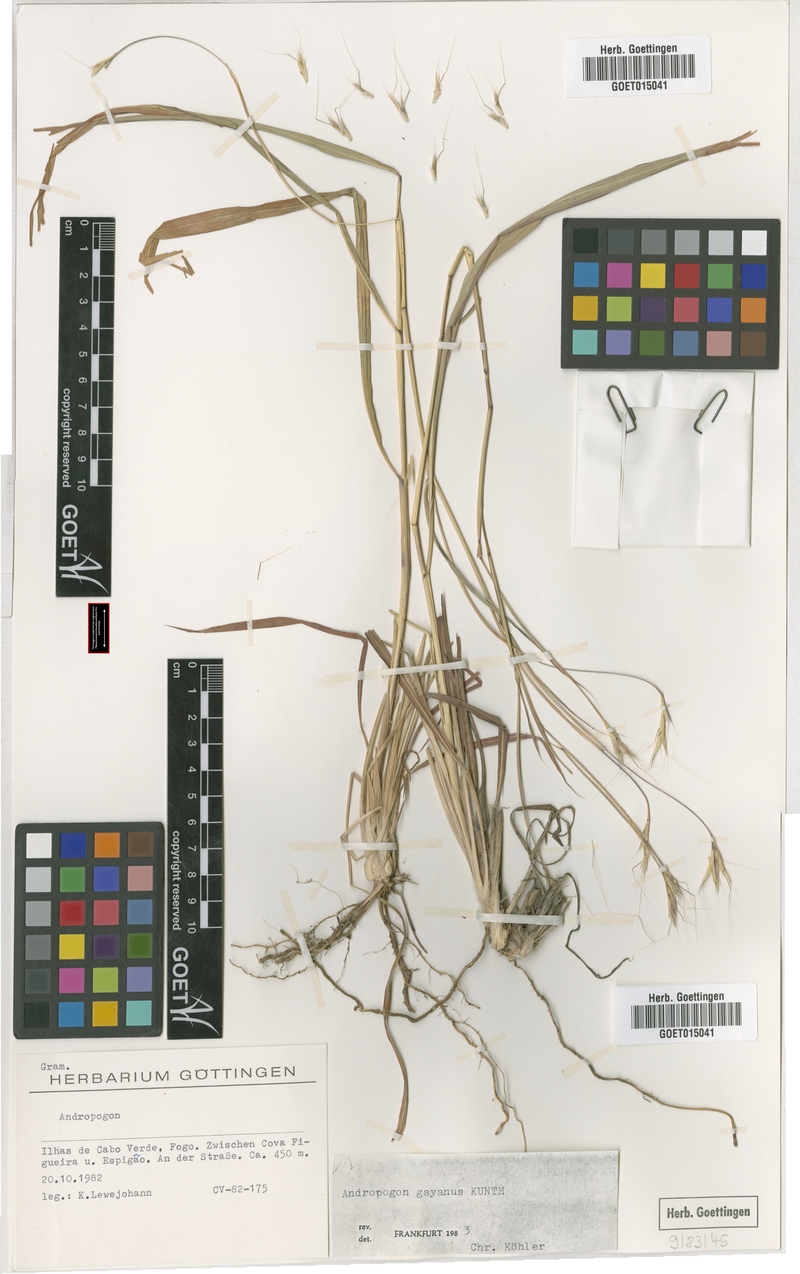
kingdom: Plantae
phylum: Tracheophyta
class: Liliopsida
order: Poales
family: Poaceae
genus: Andropogon
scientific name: Andropogon gayanus
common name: Tambuki grass
